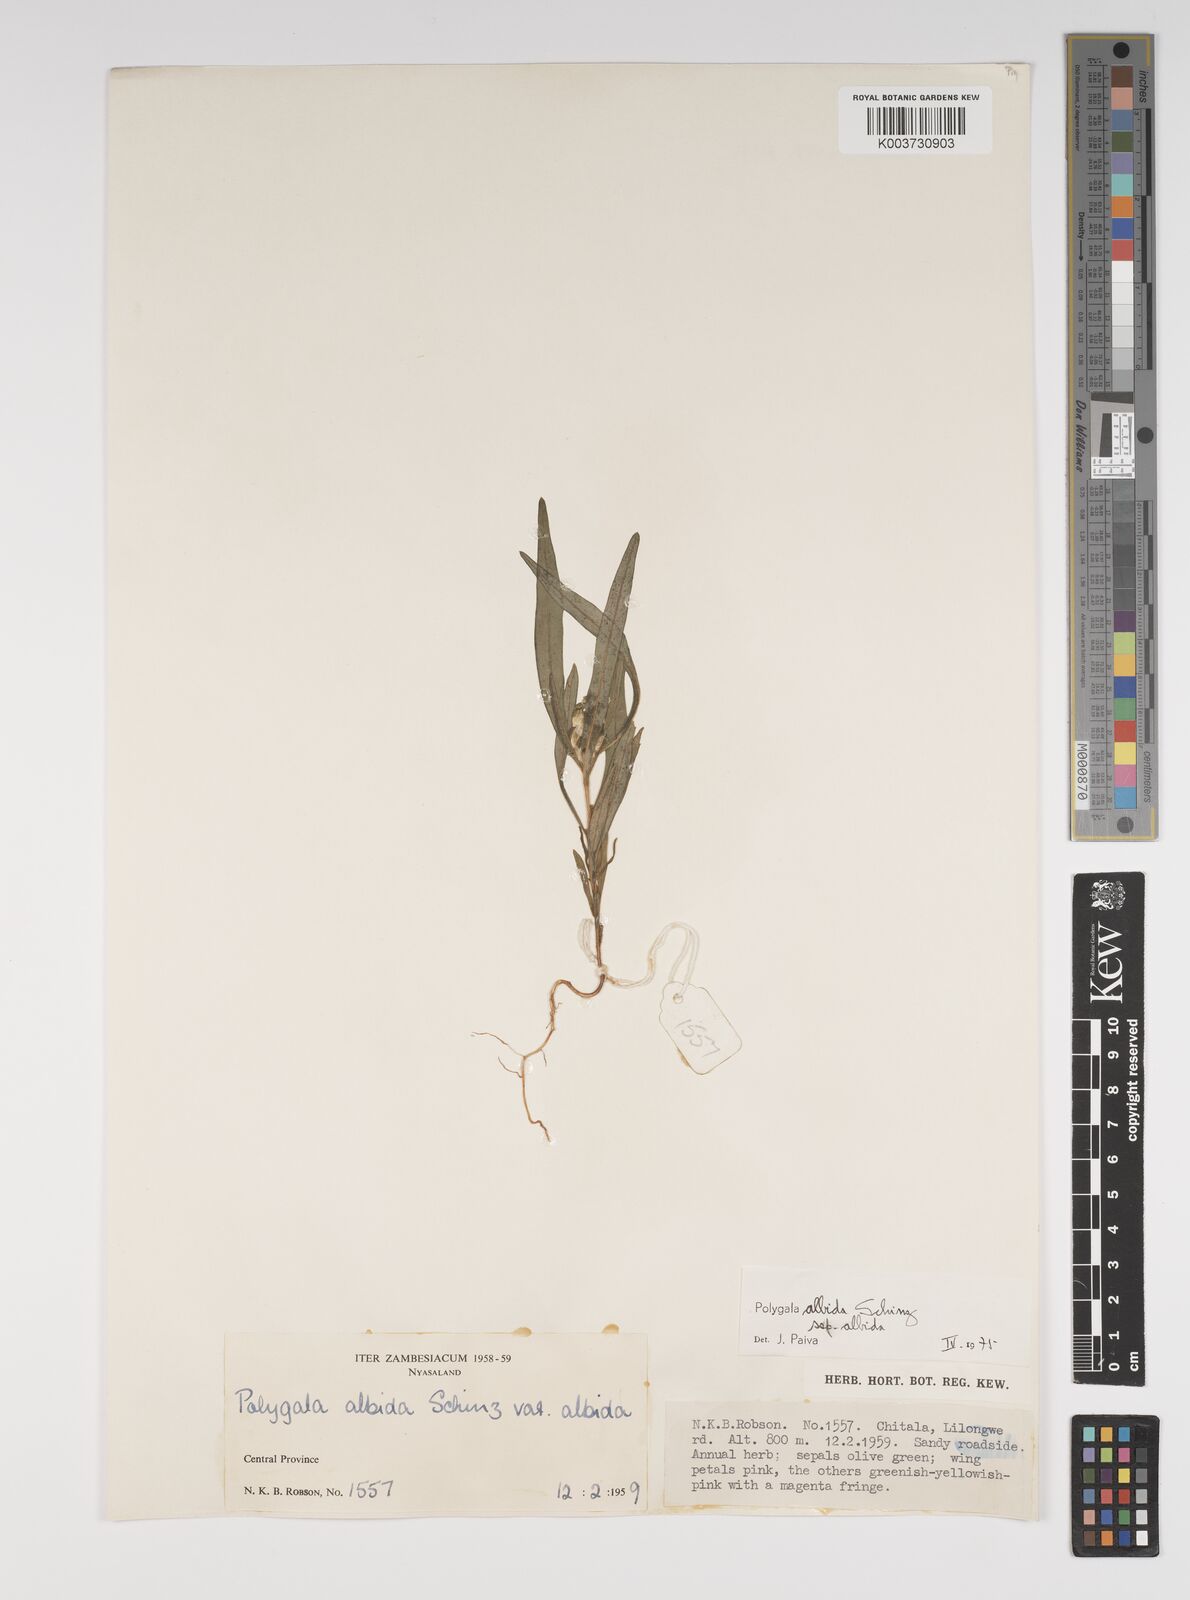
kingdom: Plantae
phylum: Tracheophyta
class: Magnoliopsida
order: Fabales
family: Polygalaceae
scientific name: Polygalaceae
